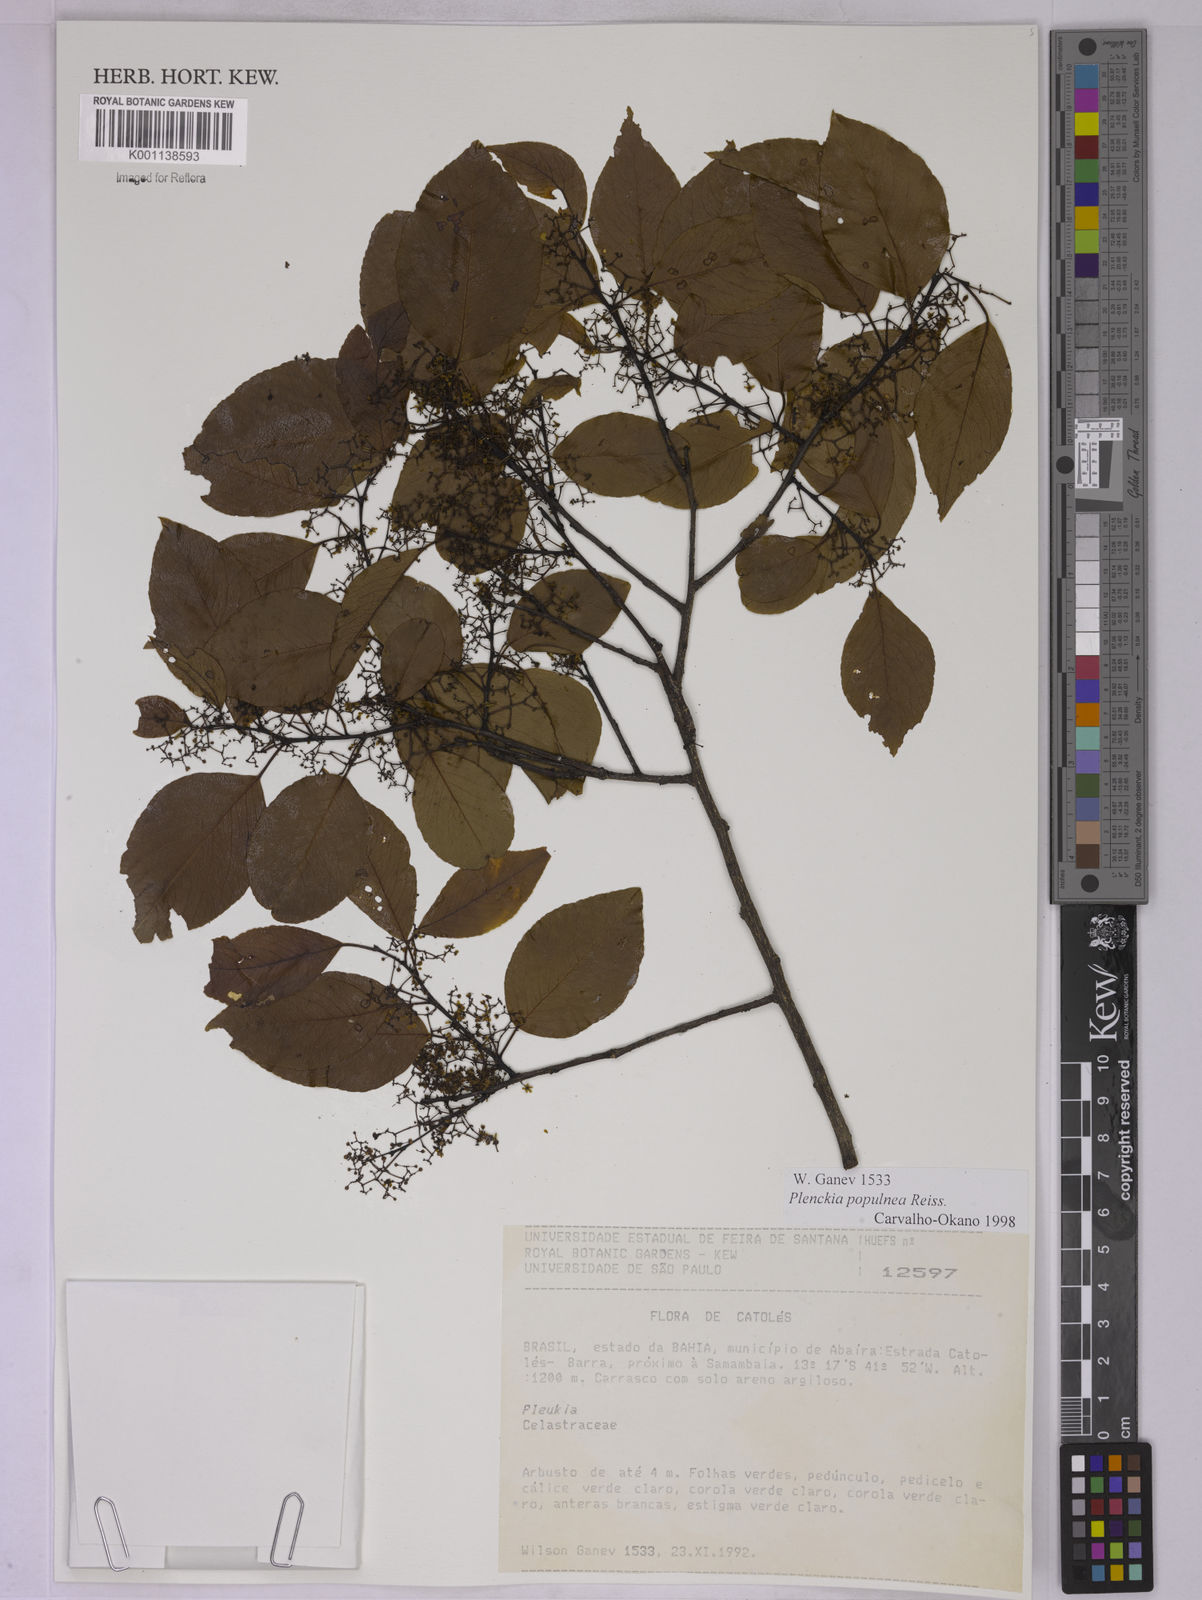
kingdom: Plantae
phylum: Tracheophyta
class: Magnoliopsida
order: Celastrales
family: Celastraceae
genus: Plenckia
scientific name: Plenckia populnea
